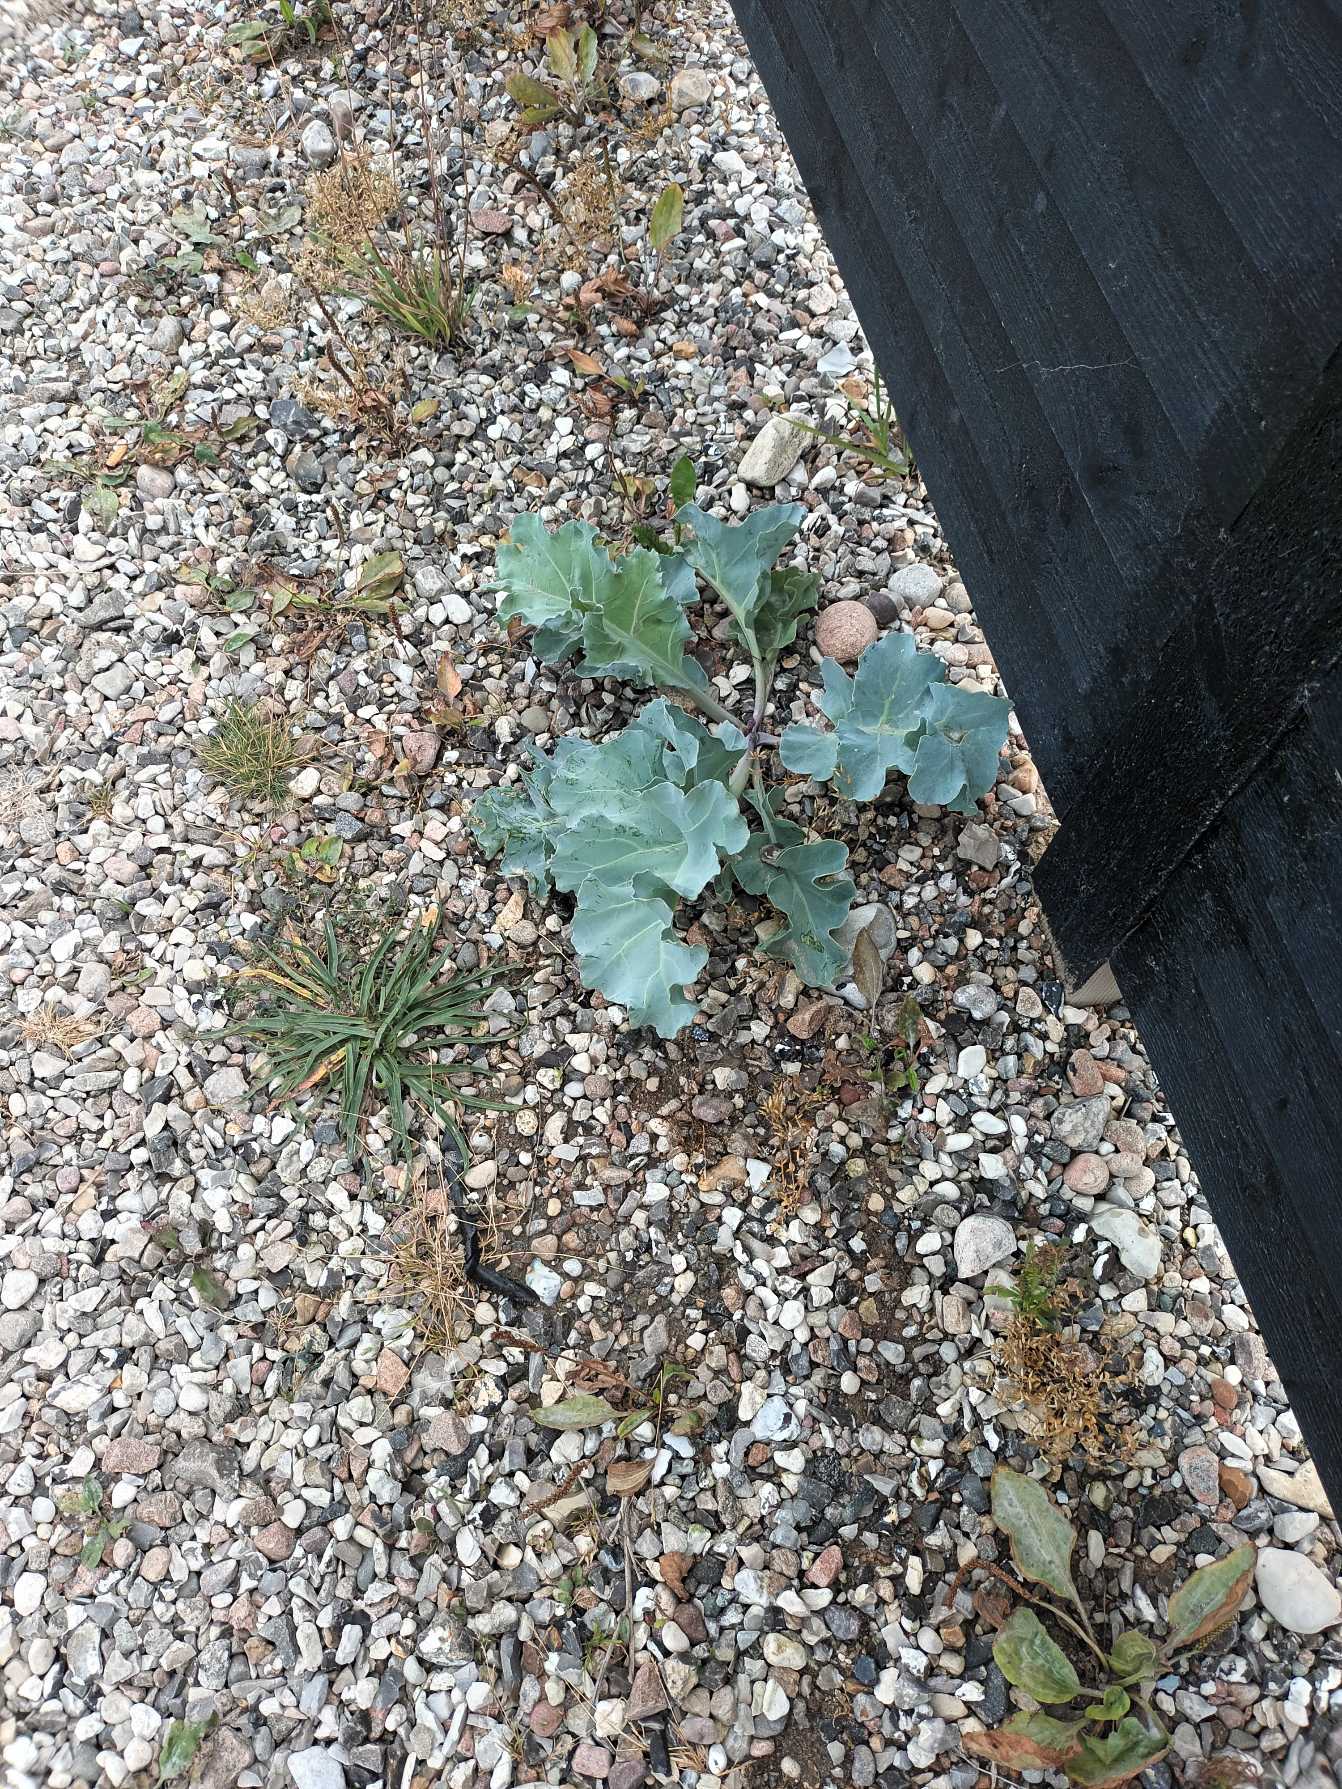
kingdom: Plantae
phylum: Tracheophyta
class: Magnoliopsida
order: Brassicales
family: Brassicaceae
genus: Crambe
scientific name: Crambe maritima
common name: Strandkål
